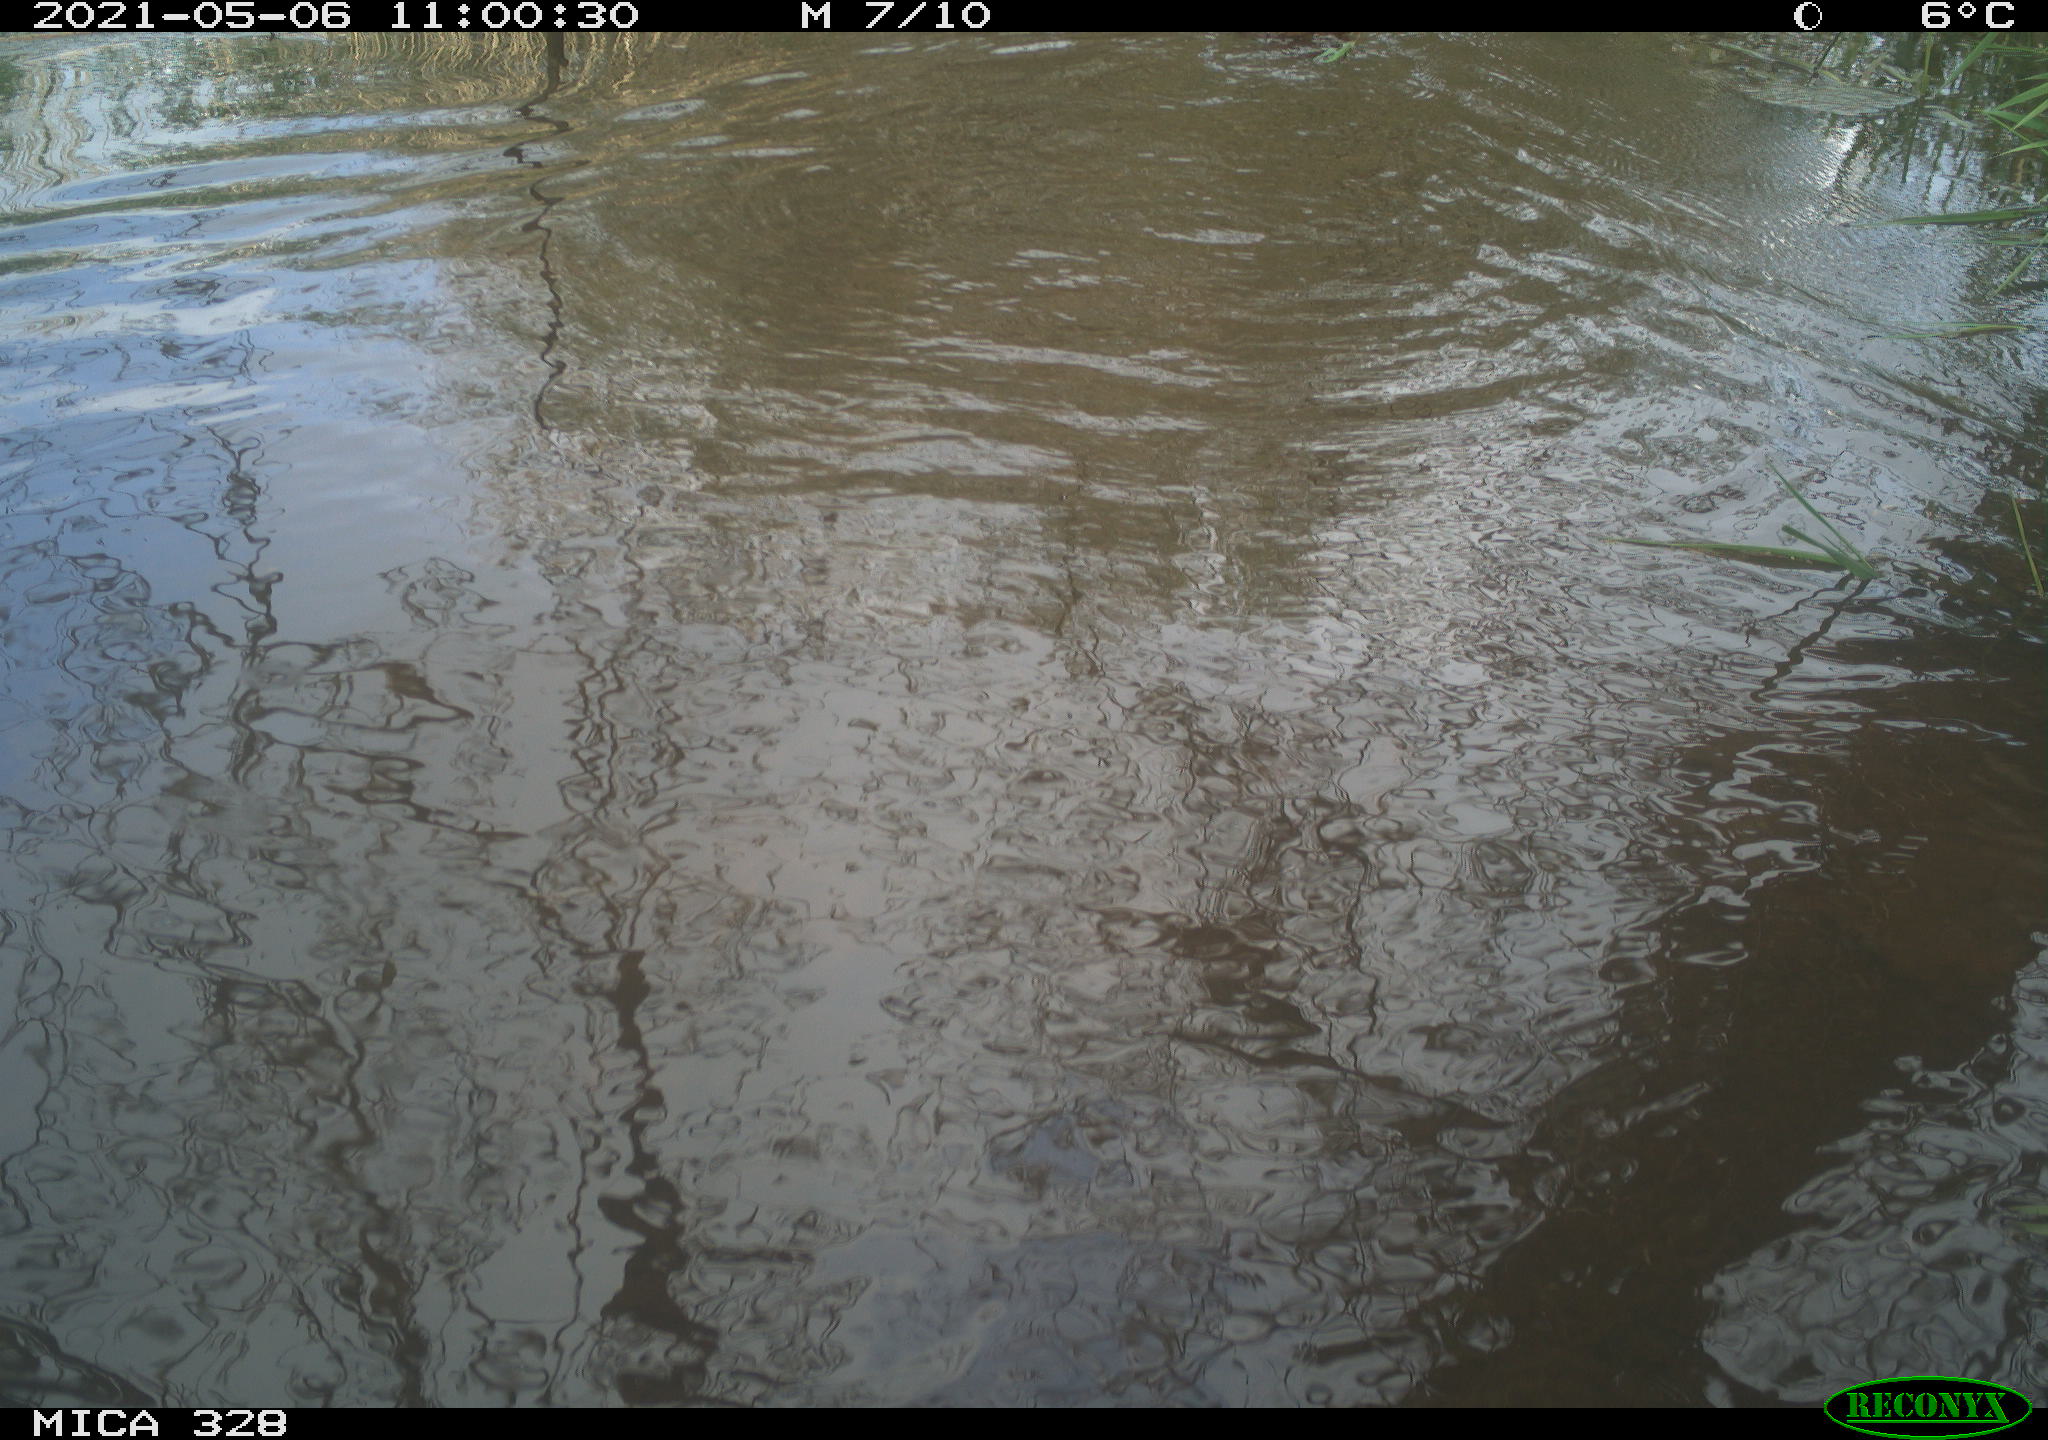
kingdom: Animalia
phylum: Chordata
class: Mammalia
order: Rodentia
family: Cricetidae
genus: Ondatra
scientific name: Ondatra zibethicus
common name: Muskrat
